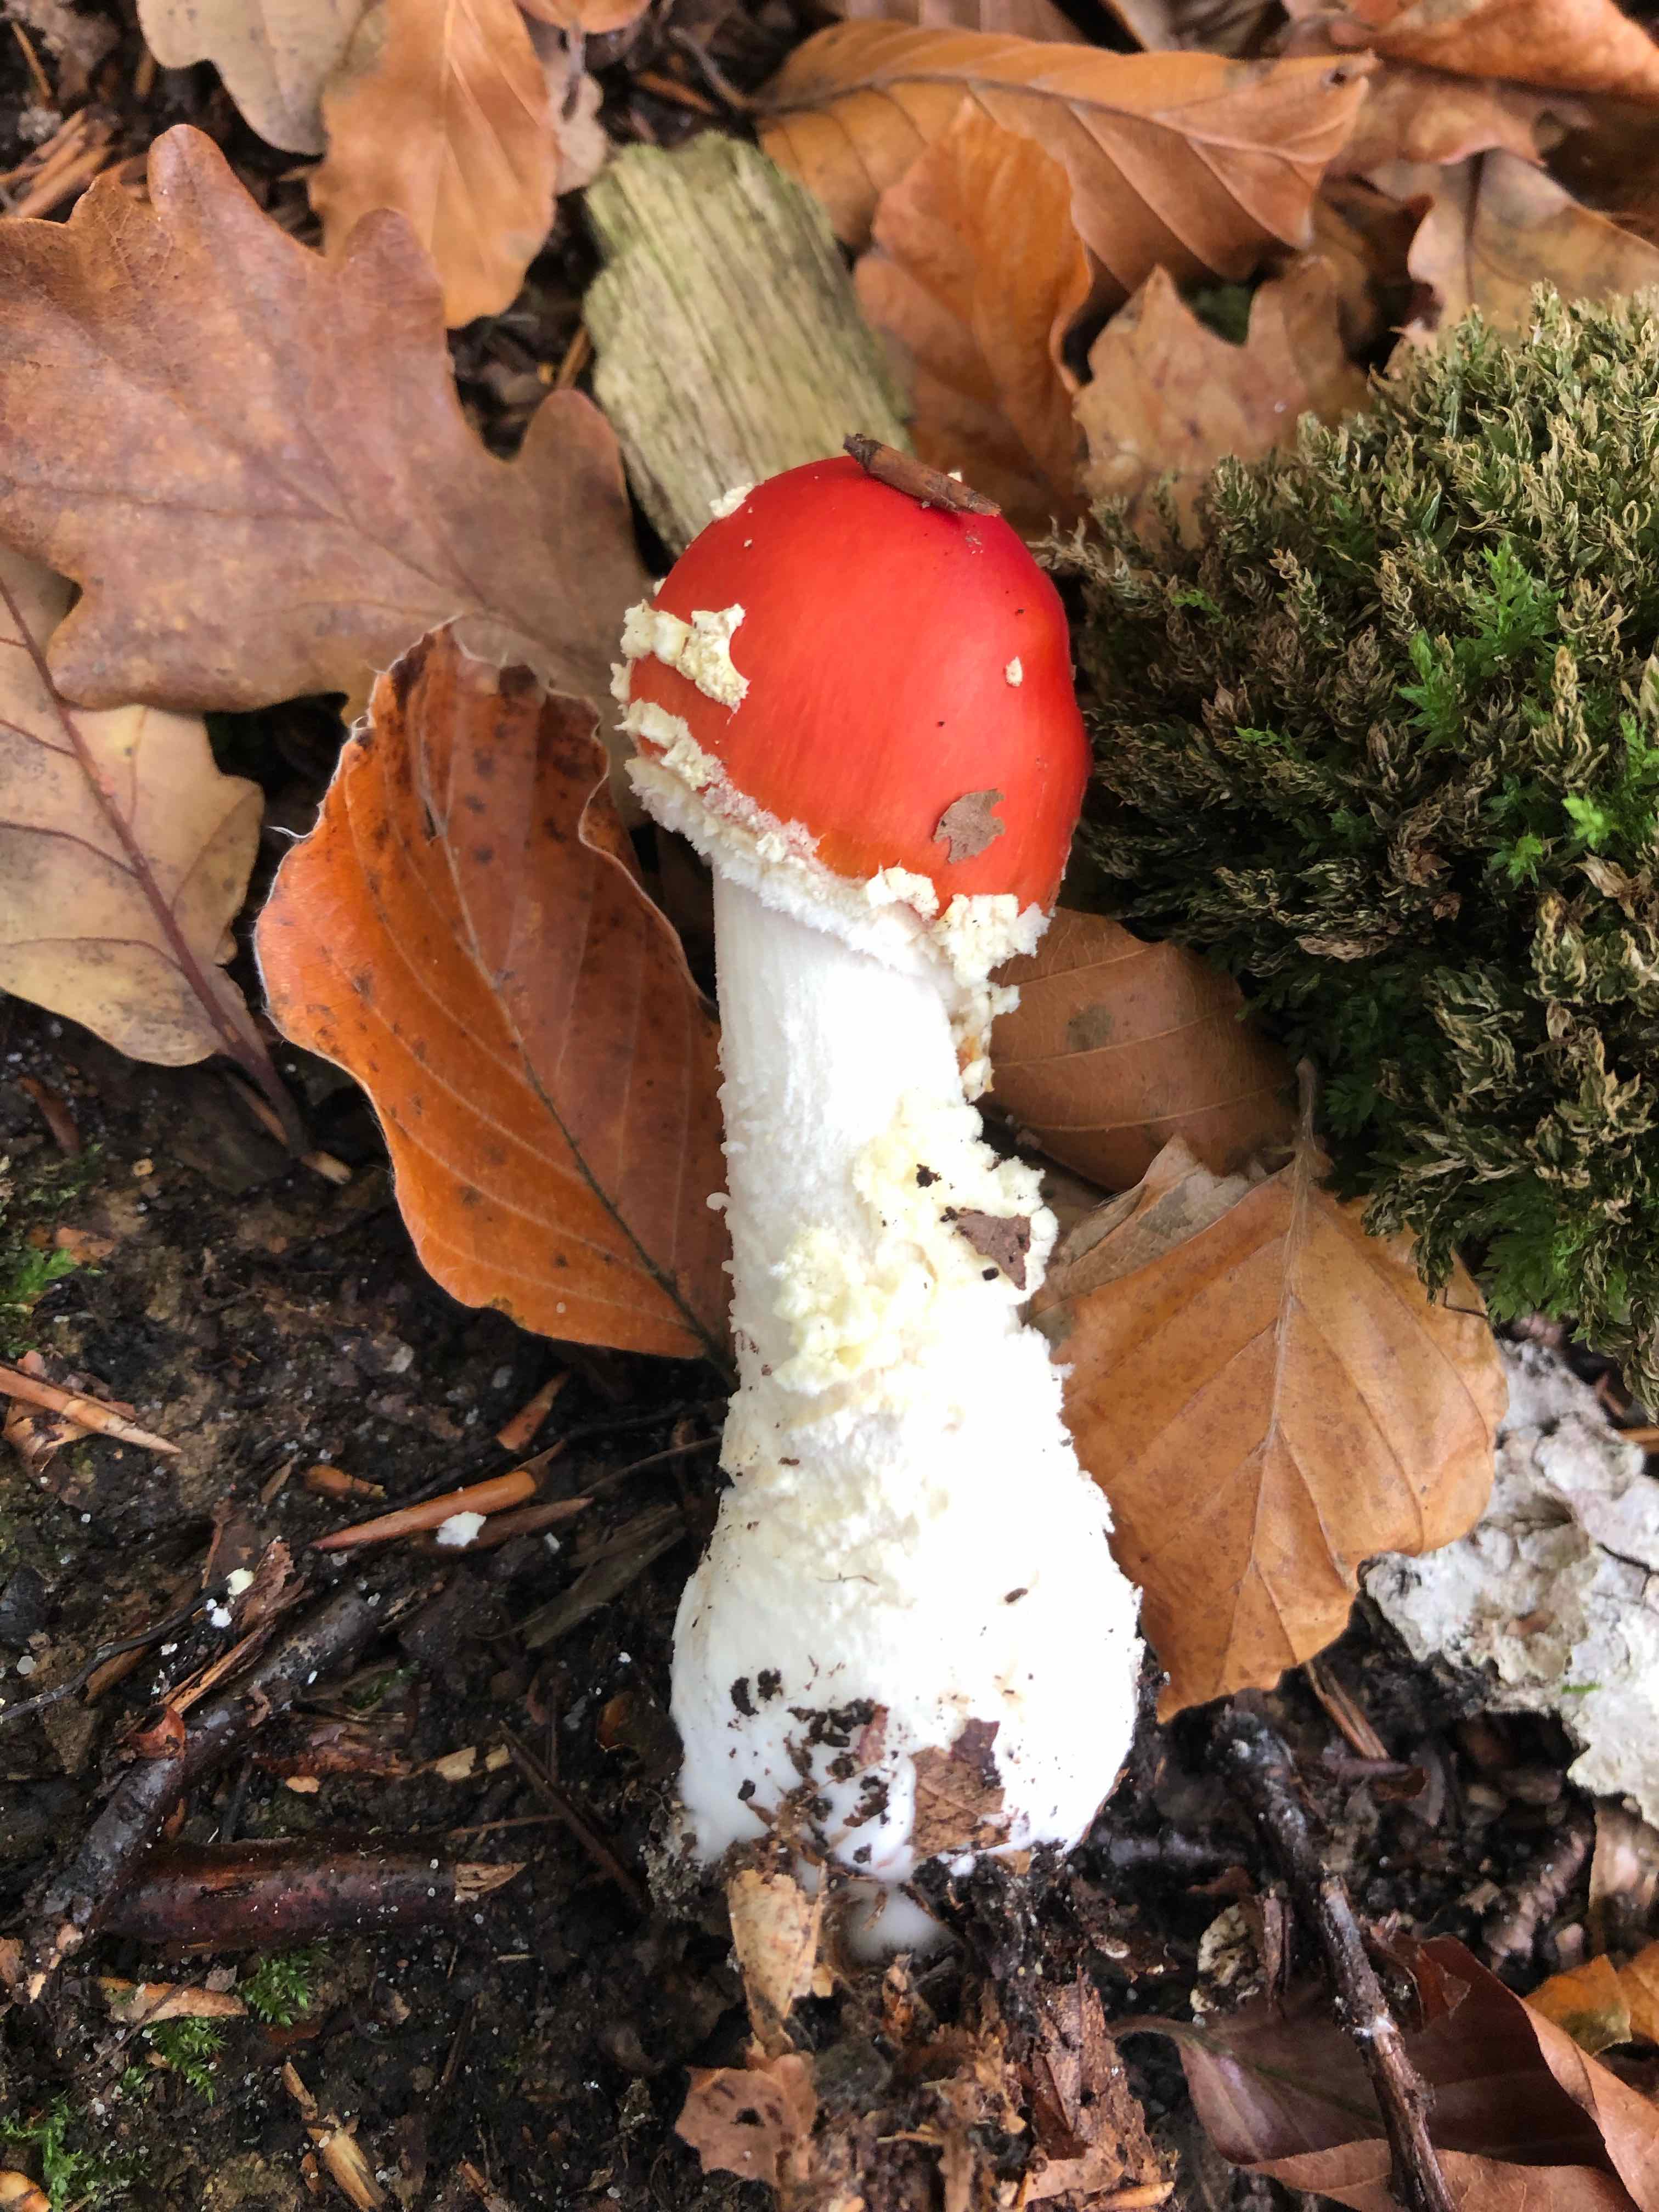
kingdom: Fungi
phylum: Basidiomycota
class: Agaricomycetes
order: Agaricales
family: Amanitaceae
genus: Amanita
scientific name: Amanita muscaria
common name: rød fluesvamp
